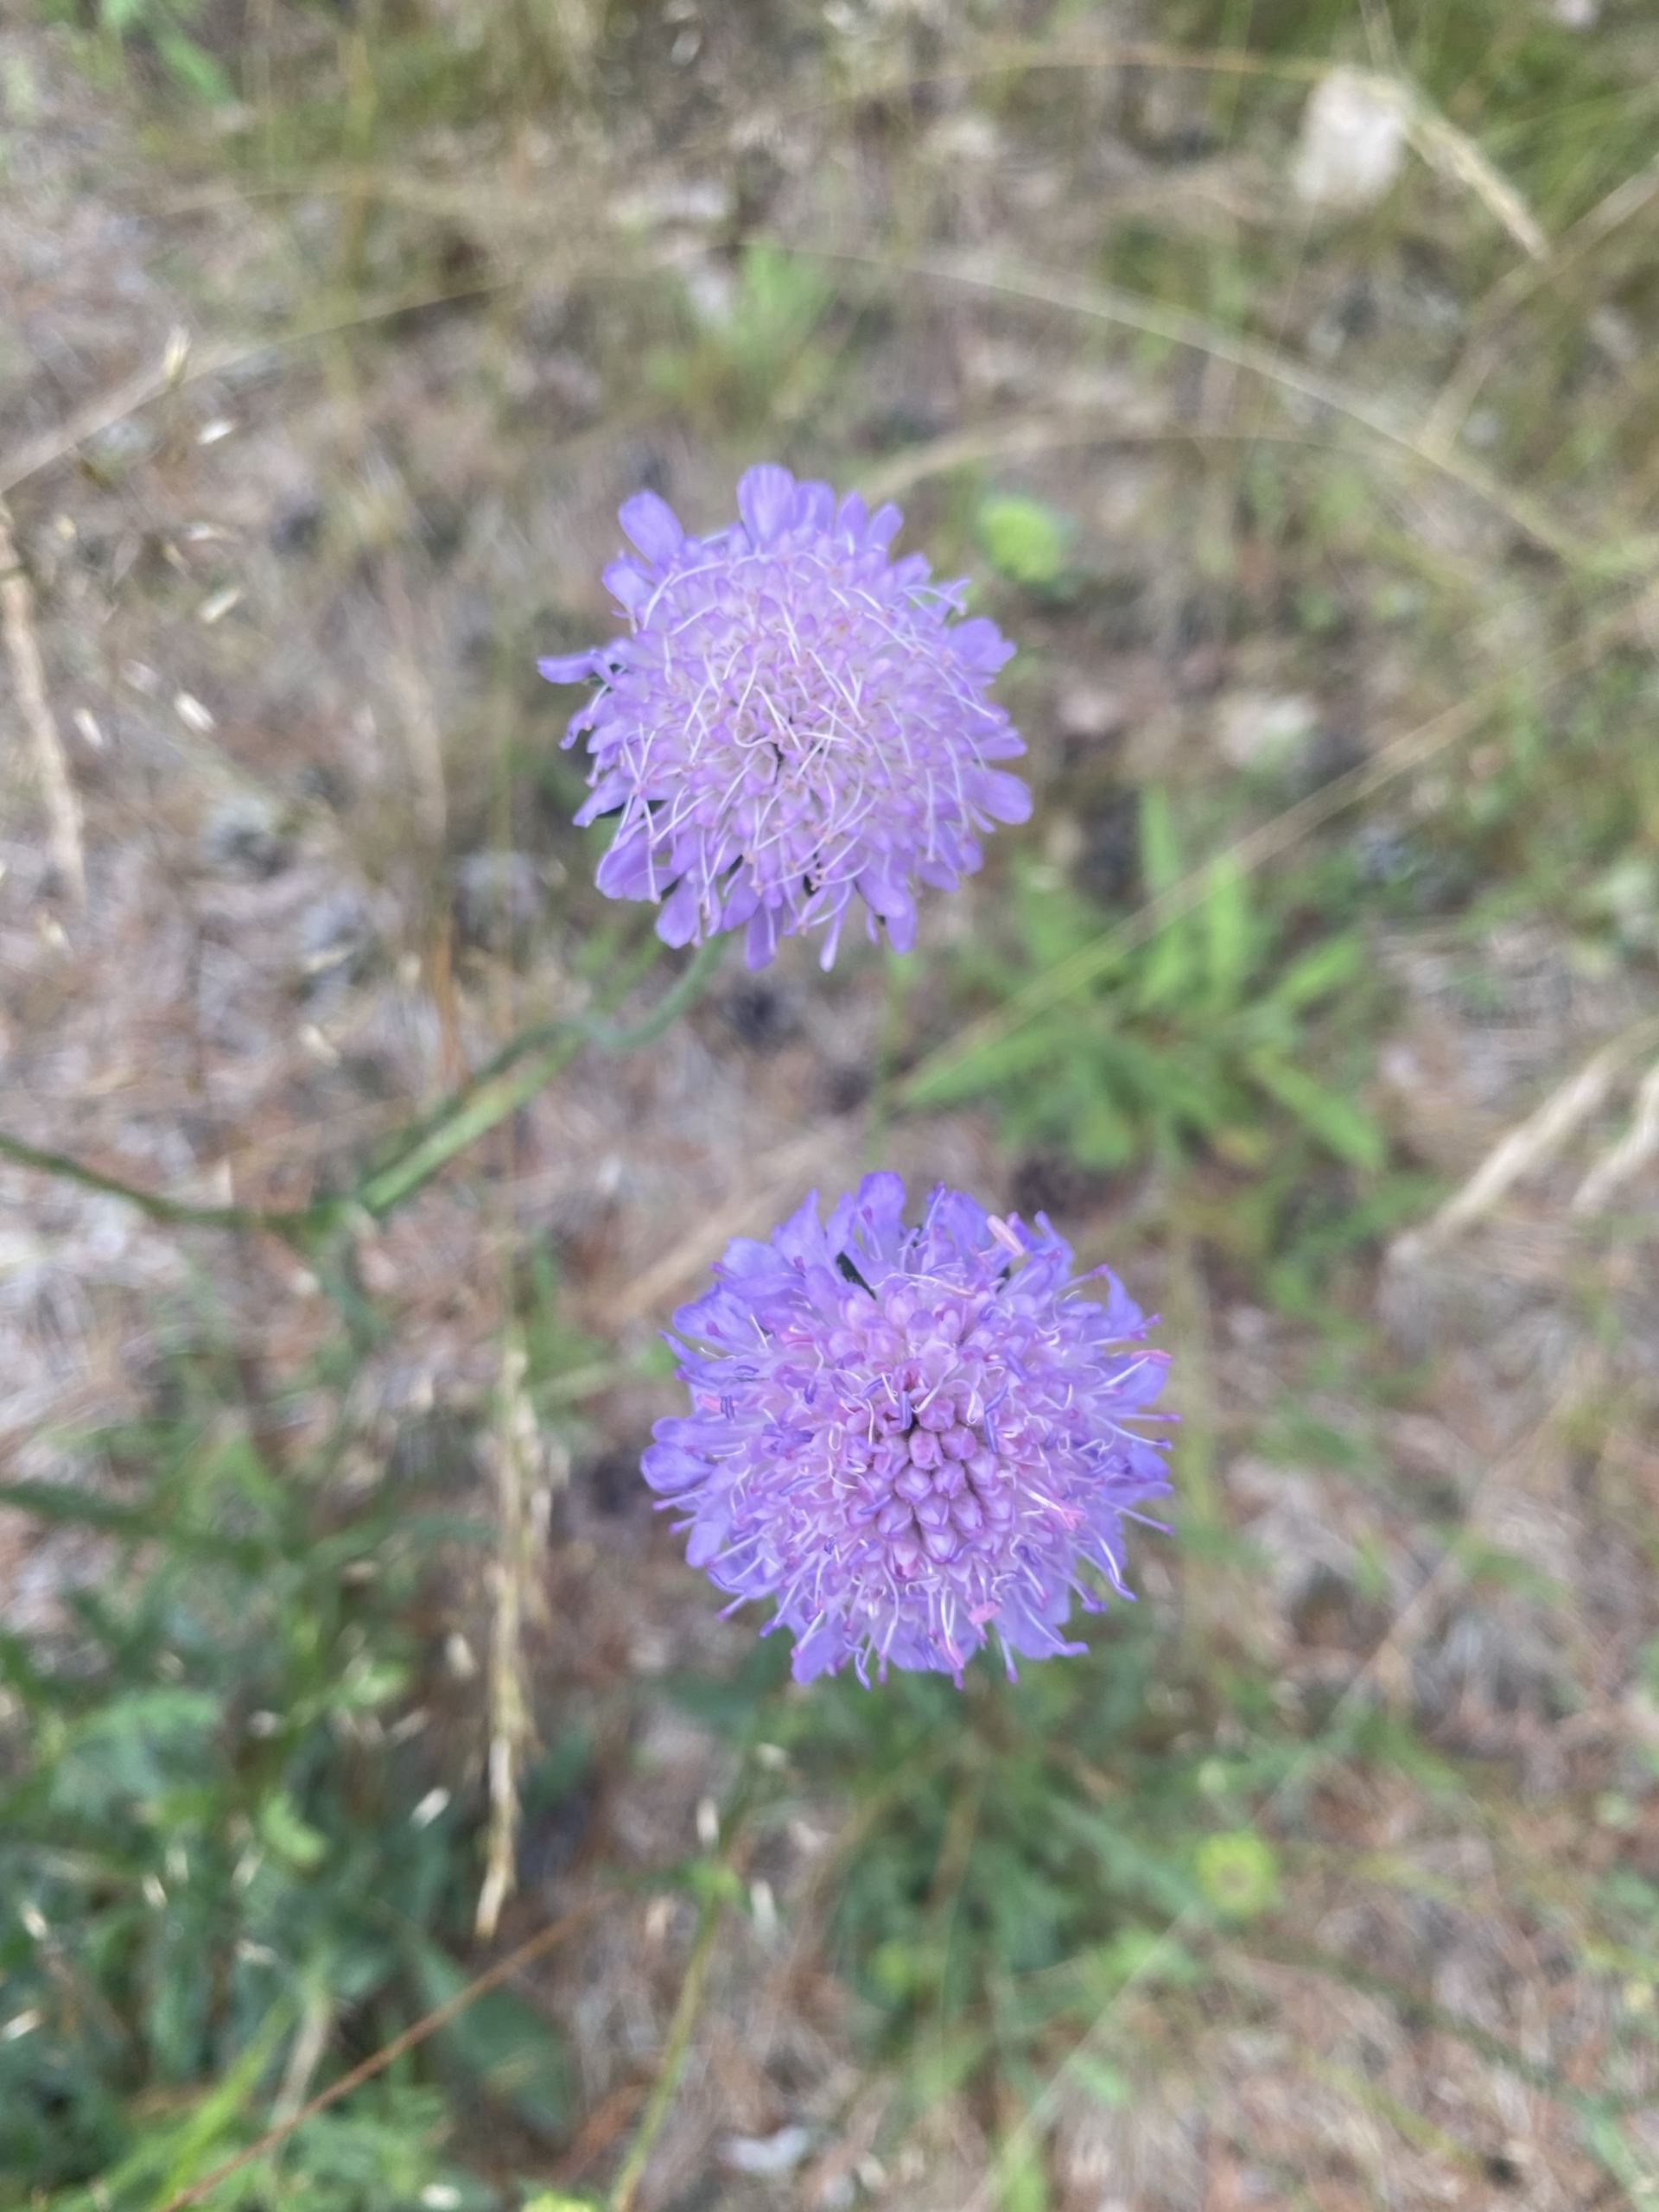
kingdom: Plantae
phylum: Tracheophyta
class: Magnoliopsida
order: Dipsacales
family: Caprifoliaceae
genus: Knautia
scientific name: Knautia arvensis
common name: Blåhat
